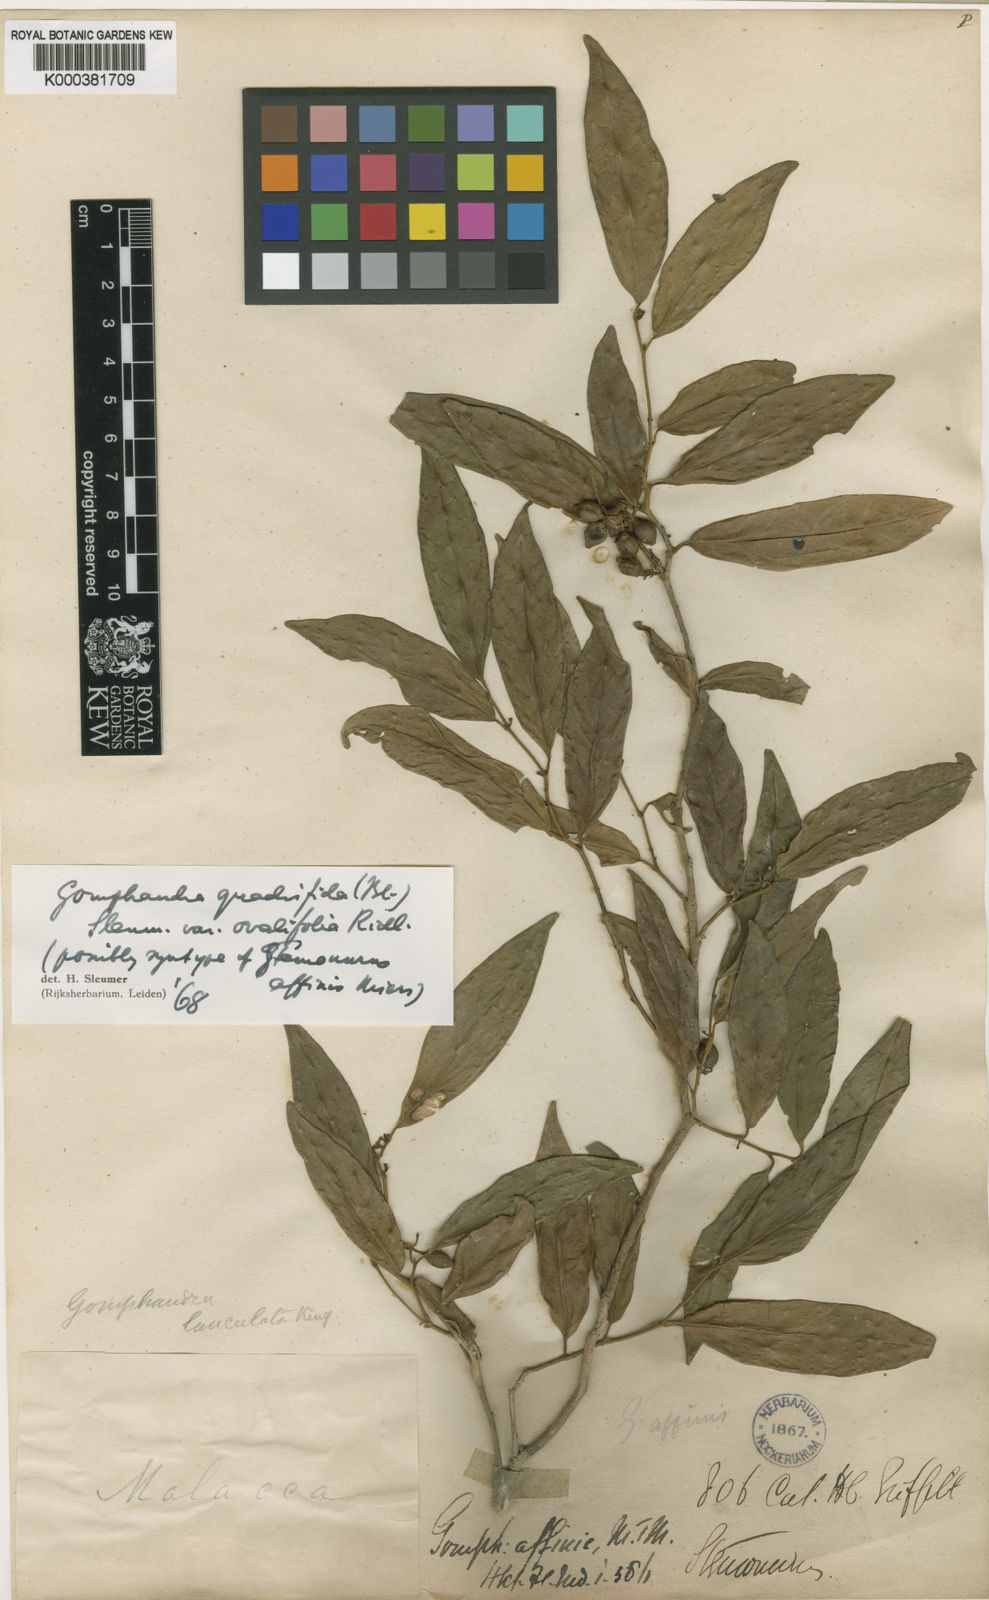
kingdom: Plantae
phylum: Tracheophyta
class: Magnoliopsida
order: Cardiopteridales
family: Stemonuraceae
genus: Gomphandra
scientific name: Gomphandra quadrifida
